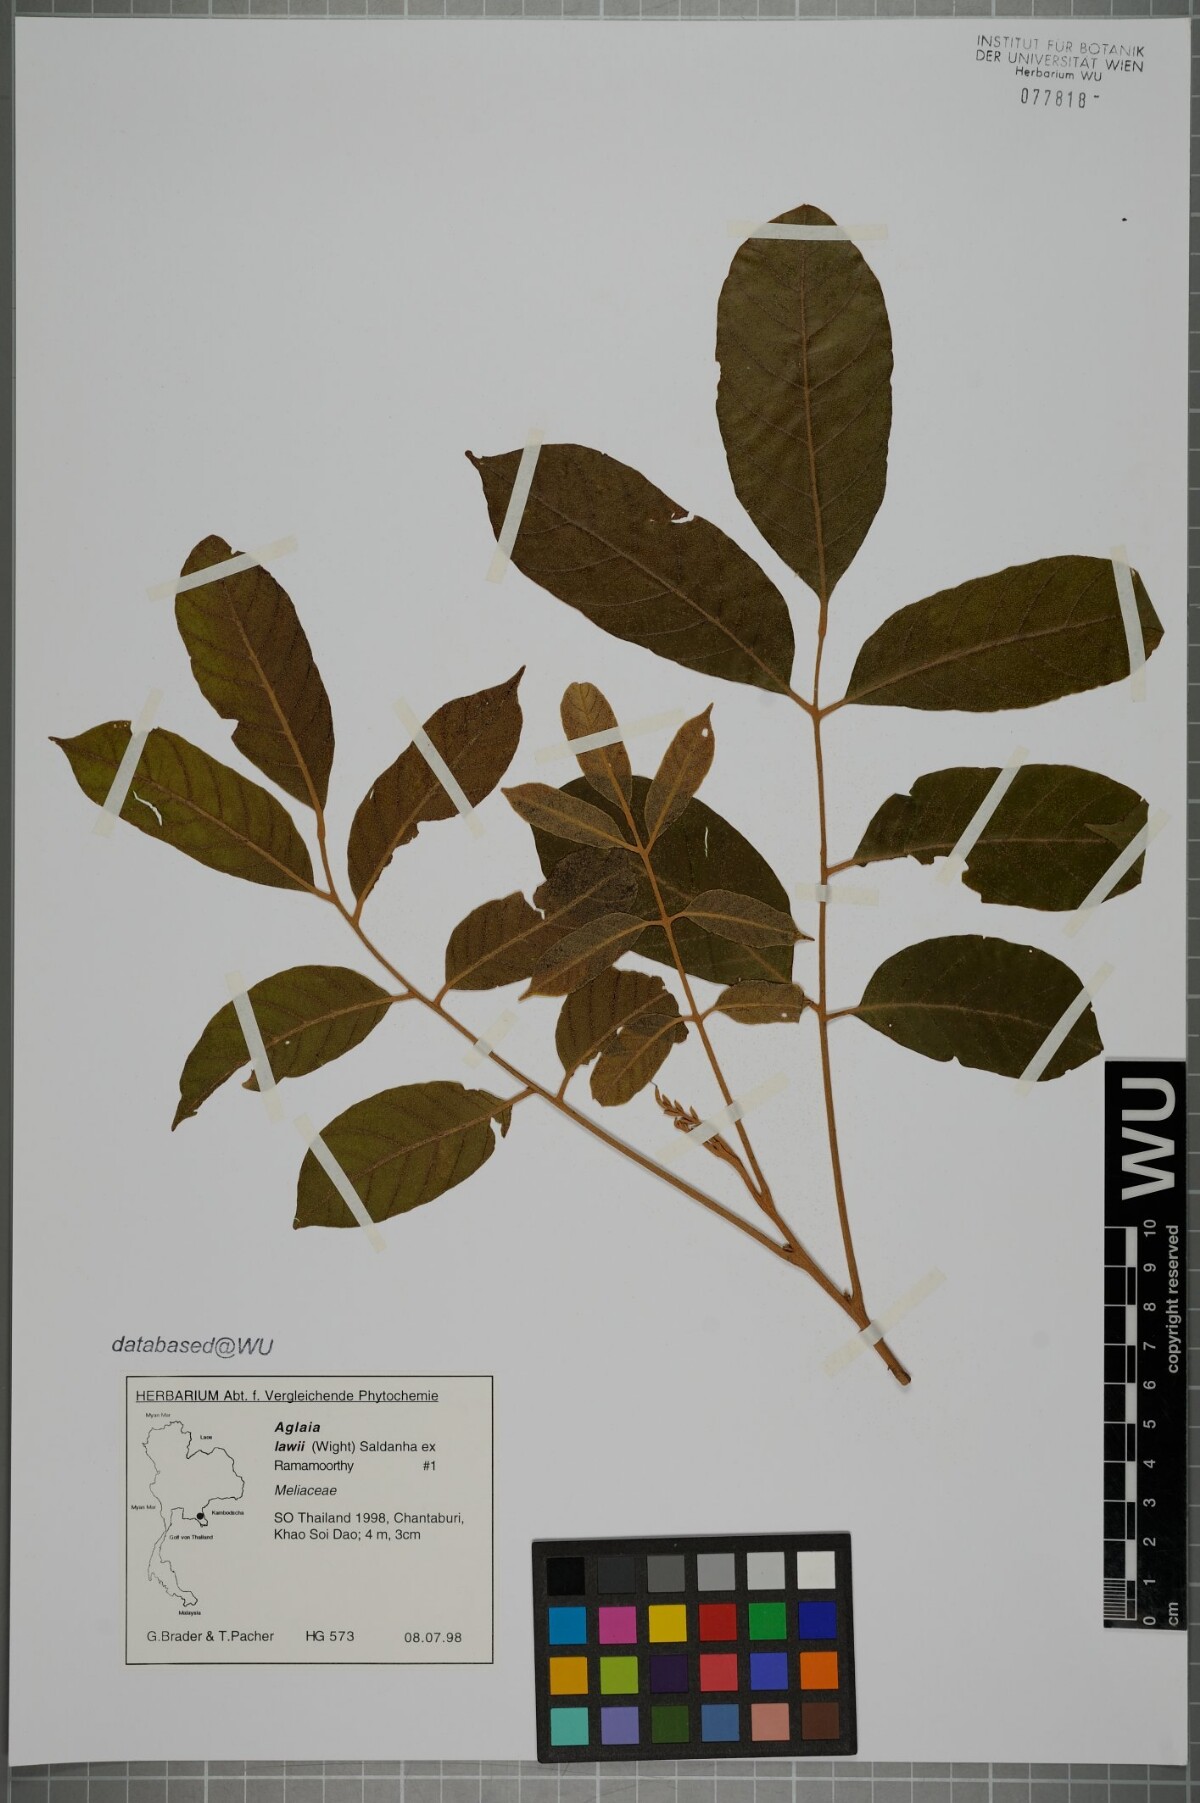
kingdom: Plantae
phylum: Tracheophyta
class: Magnoliopsida
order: Sapindales
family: Meliaceae
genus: Aglaia
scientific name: Aglaia lawii
